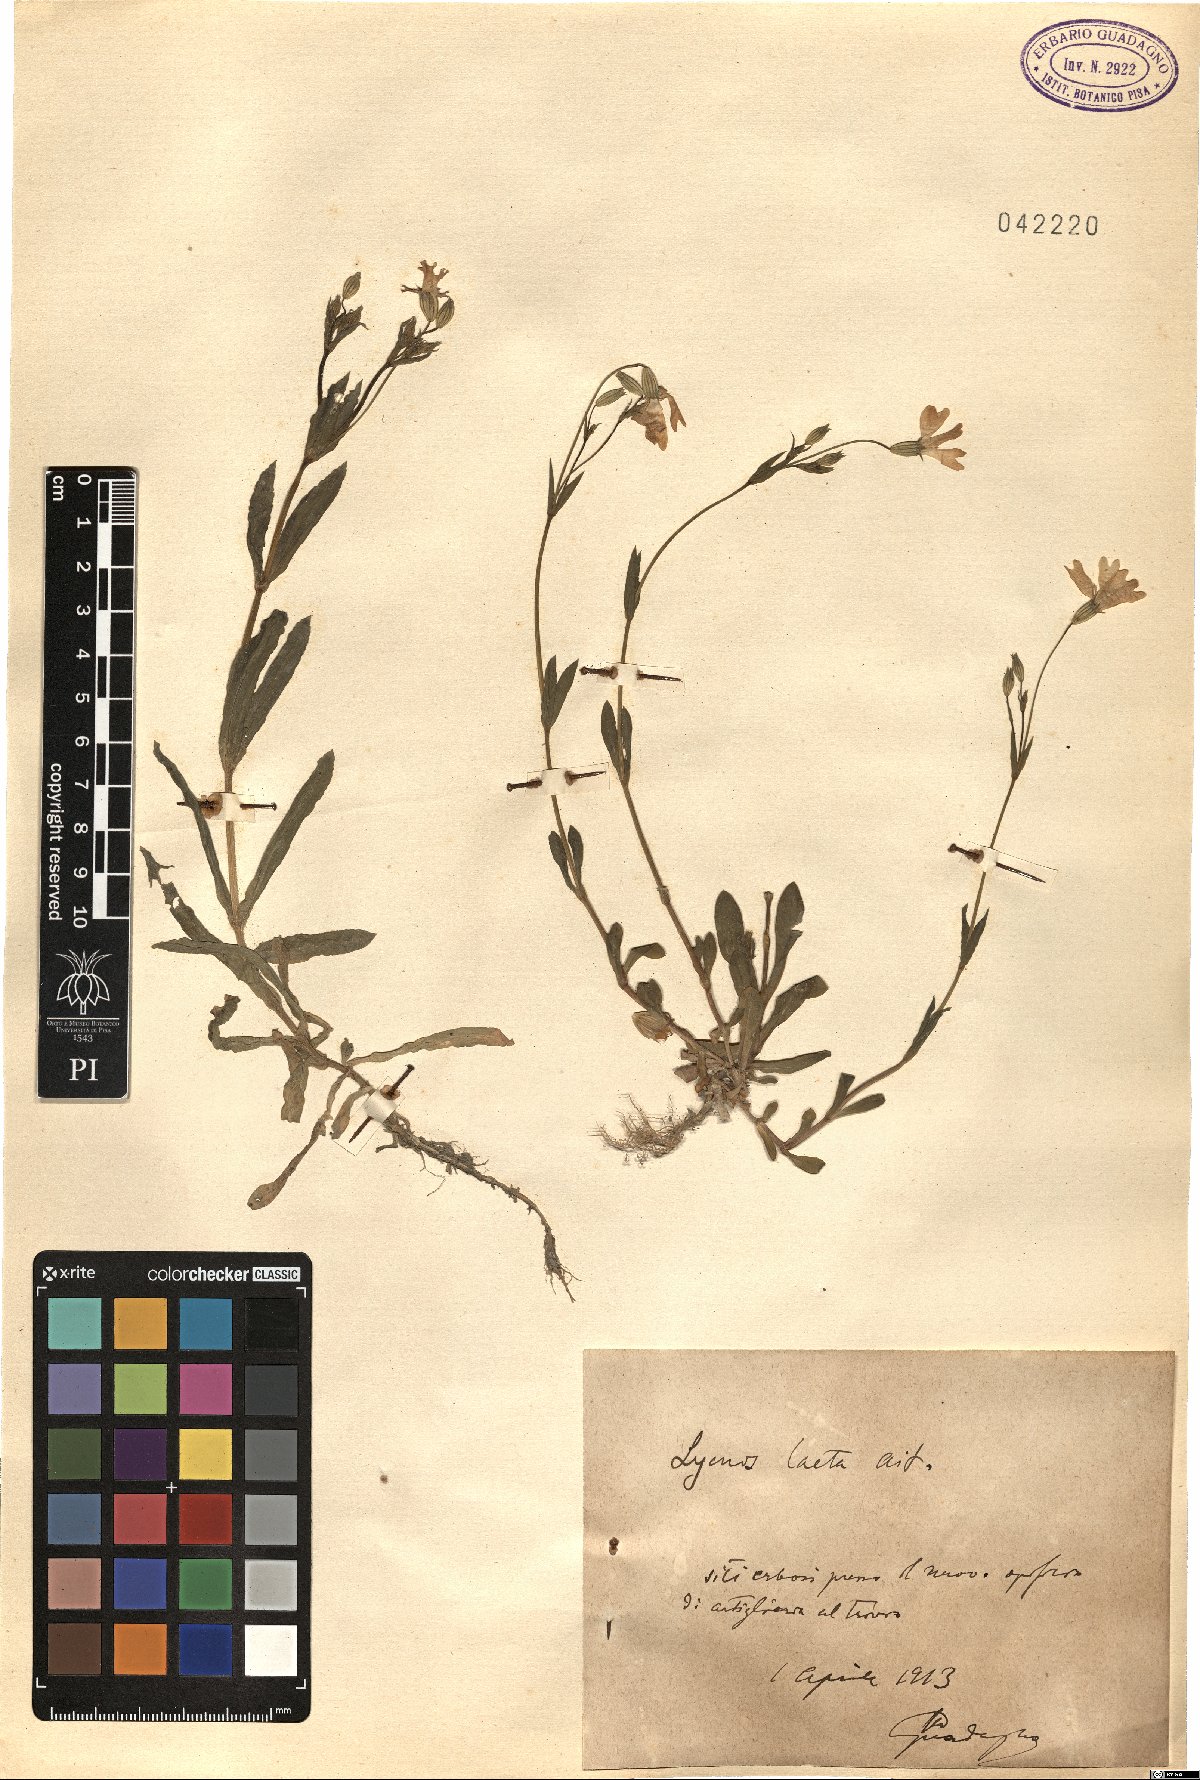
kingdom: Plantae
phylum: Tracheophyta
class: Magnoliopsida
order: Caryophyllales
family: Caryophyllaceae
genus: Eudianthe
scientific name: Eudianthe laeta
